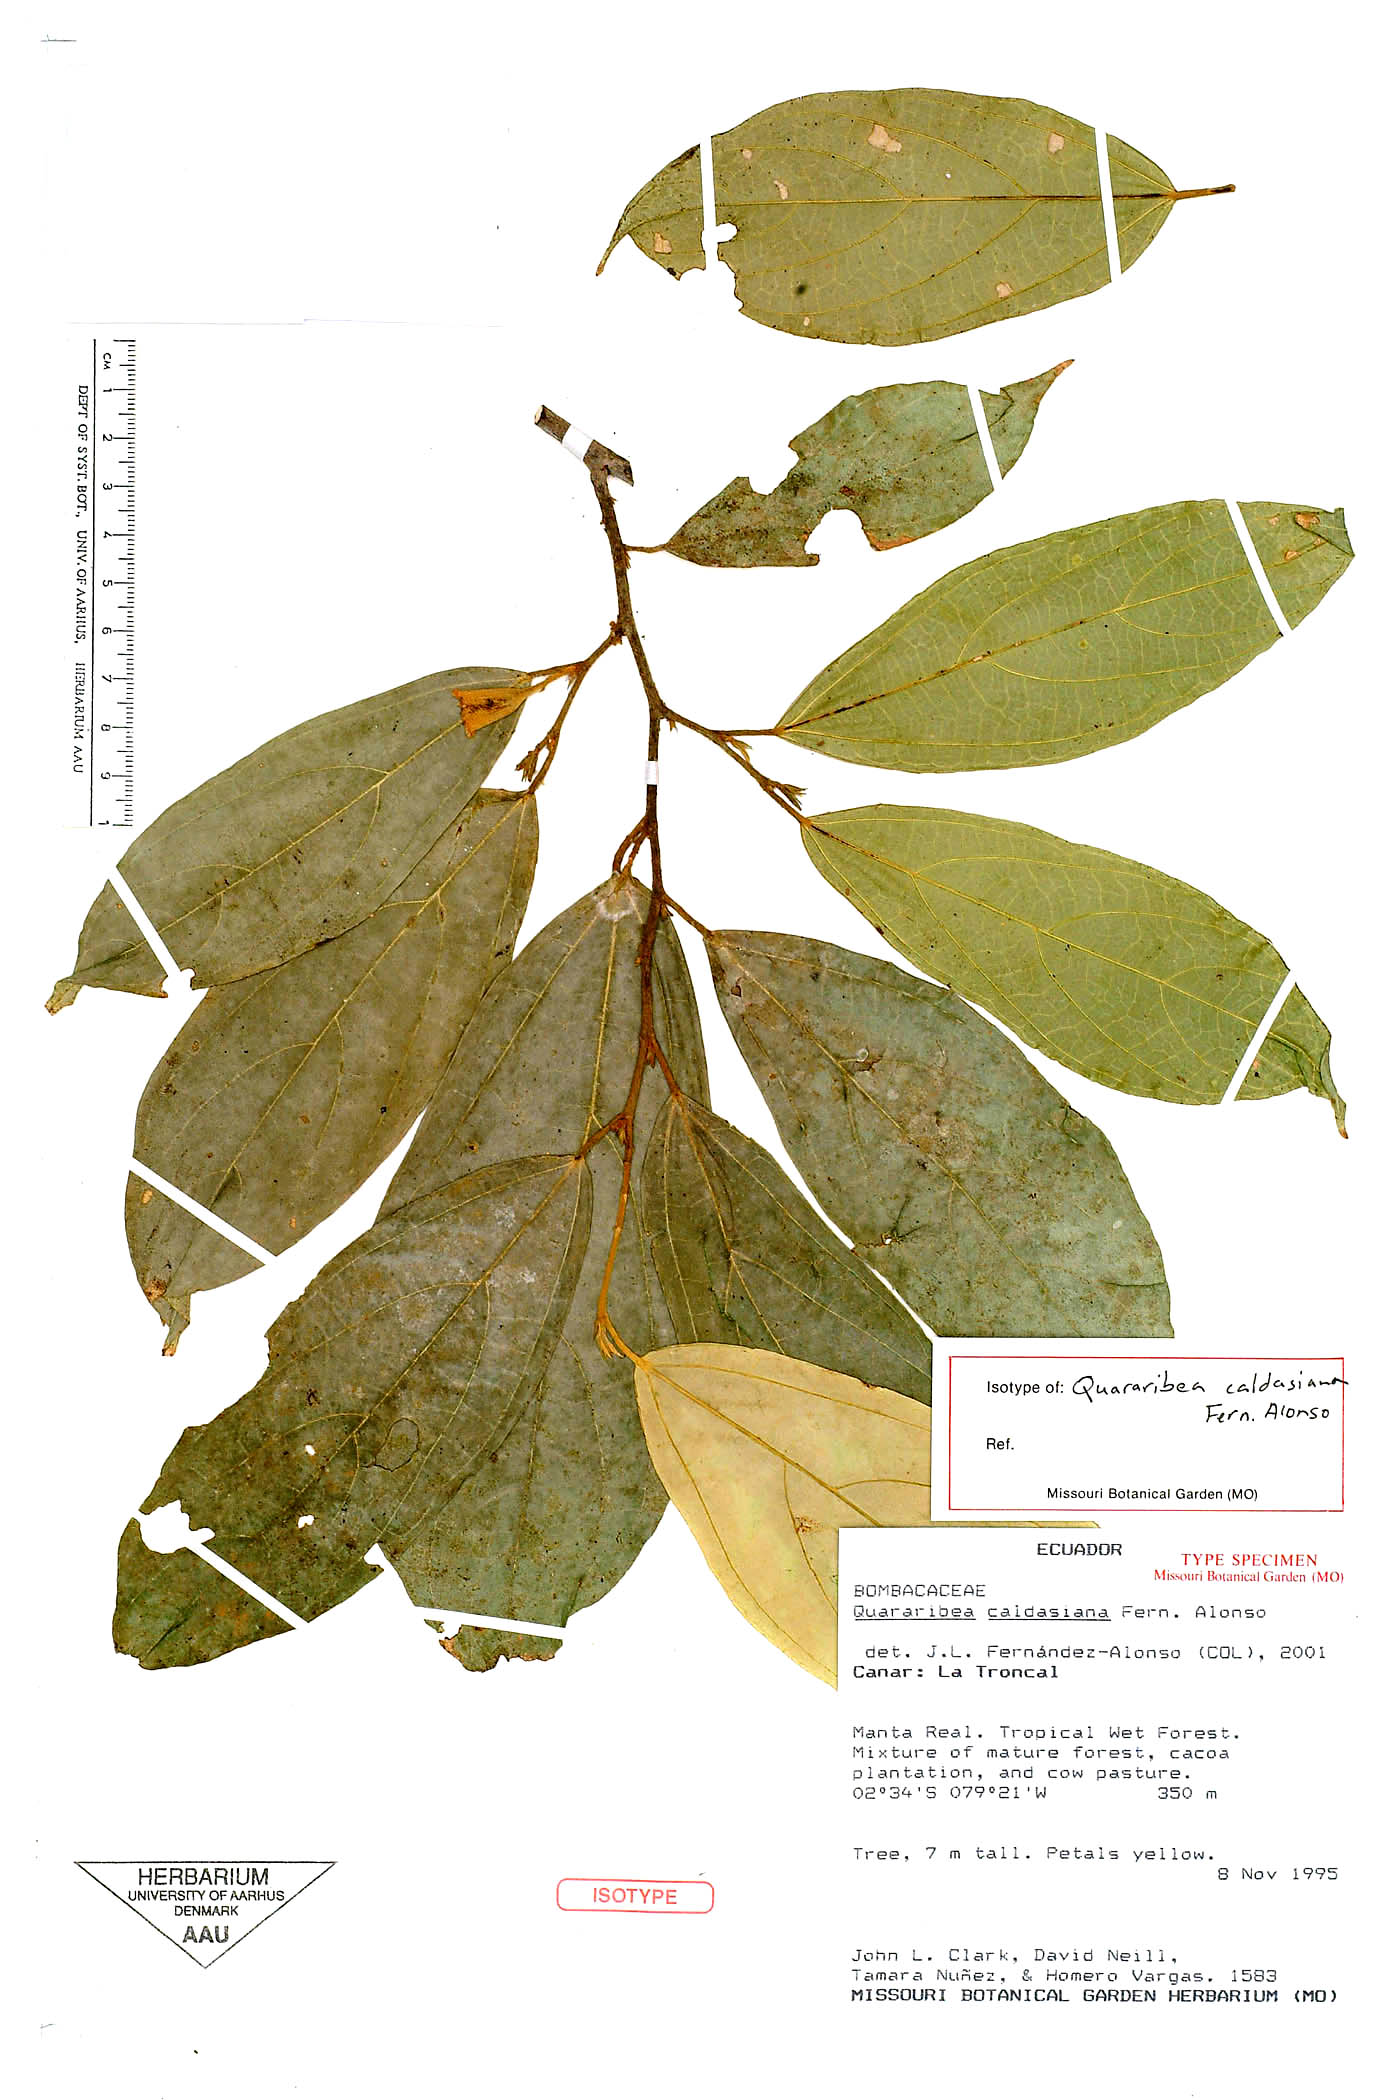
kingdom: Plantae
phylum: Tracheophyta
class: Magnoliopsida
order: Malvales
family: Malvaceae
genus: Quararibea
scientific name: Quararibea caldasiana
